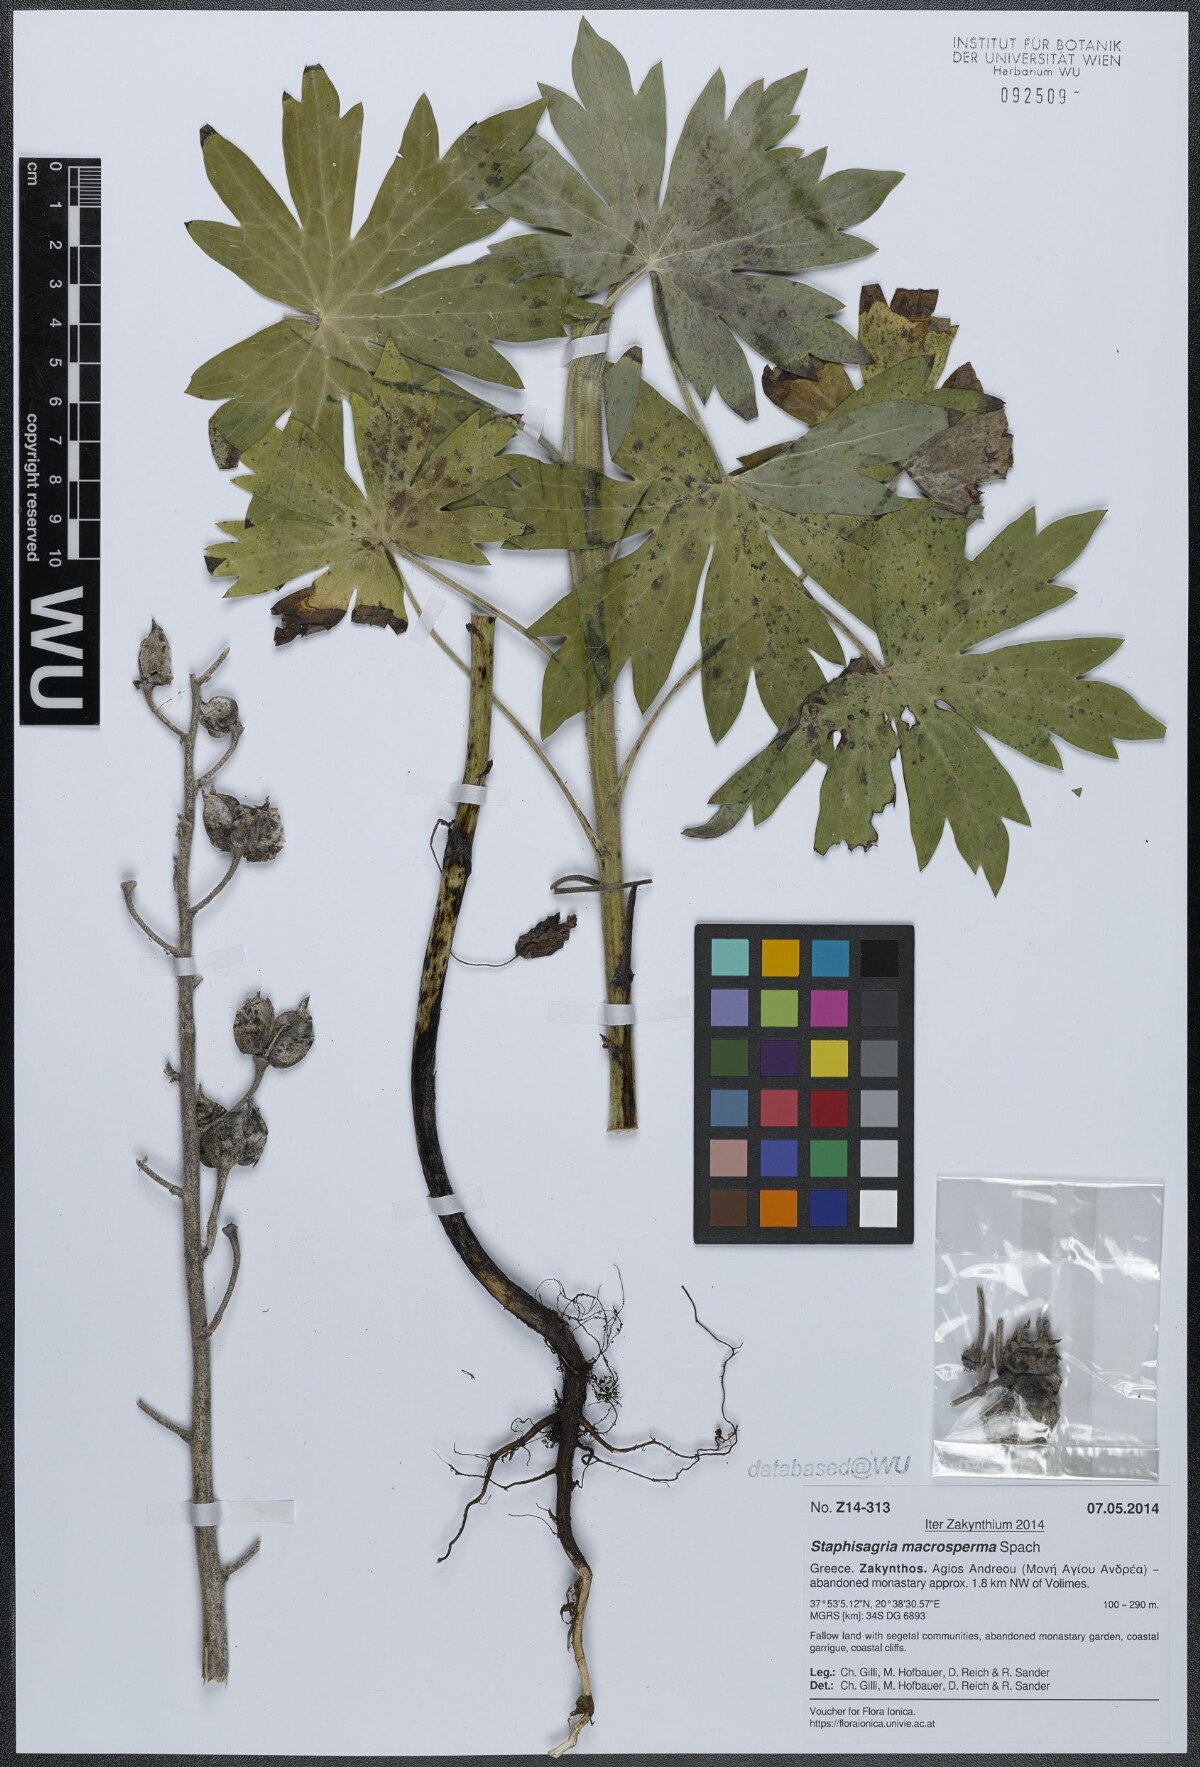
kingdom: Plantae
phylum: Tracheophyta
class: Magnoliopsida
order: Ranunculales
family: Ranunculaceae
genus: Staphisagria
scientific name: Staphisagria macrosperma
